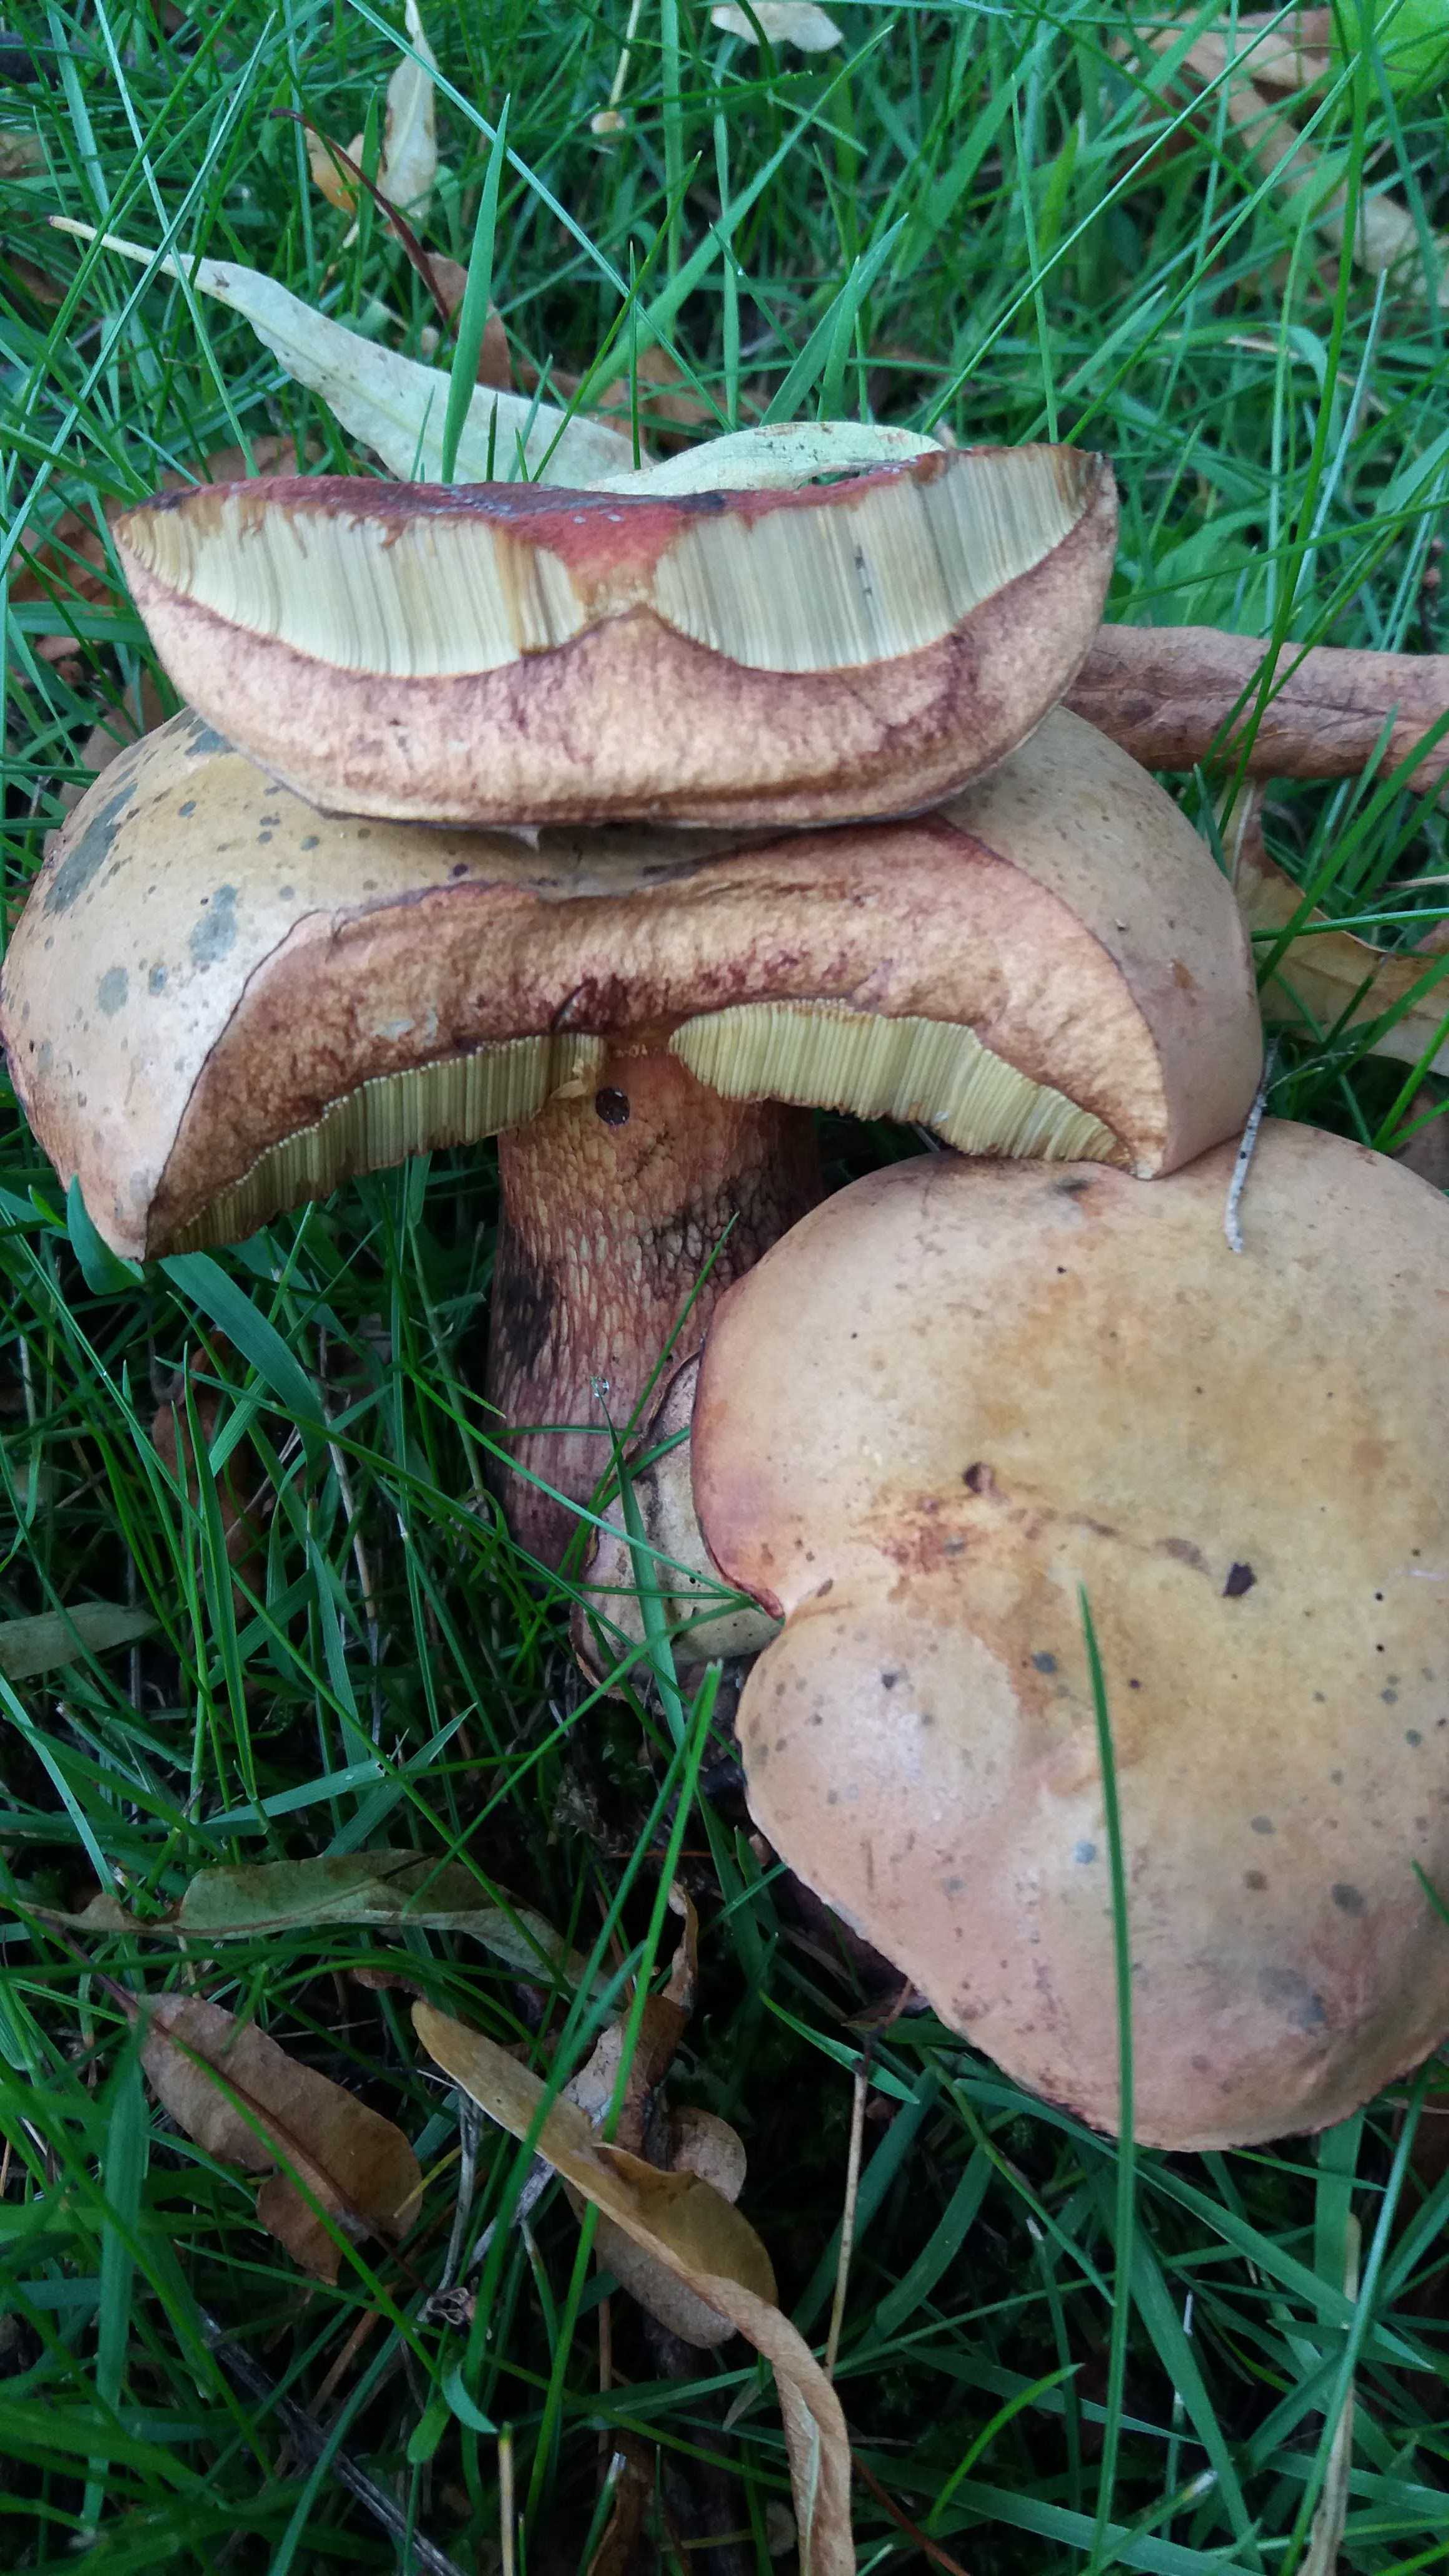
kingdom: Fungi
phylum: Basidiomycota
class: Agaricomycetes
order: Boletales
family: Boletaceae
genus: Suillellus
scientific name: Suillellus luridus
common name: netstokket indigorørhat
